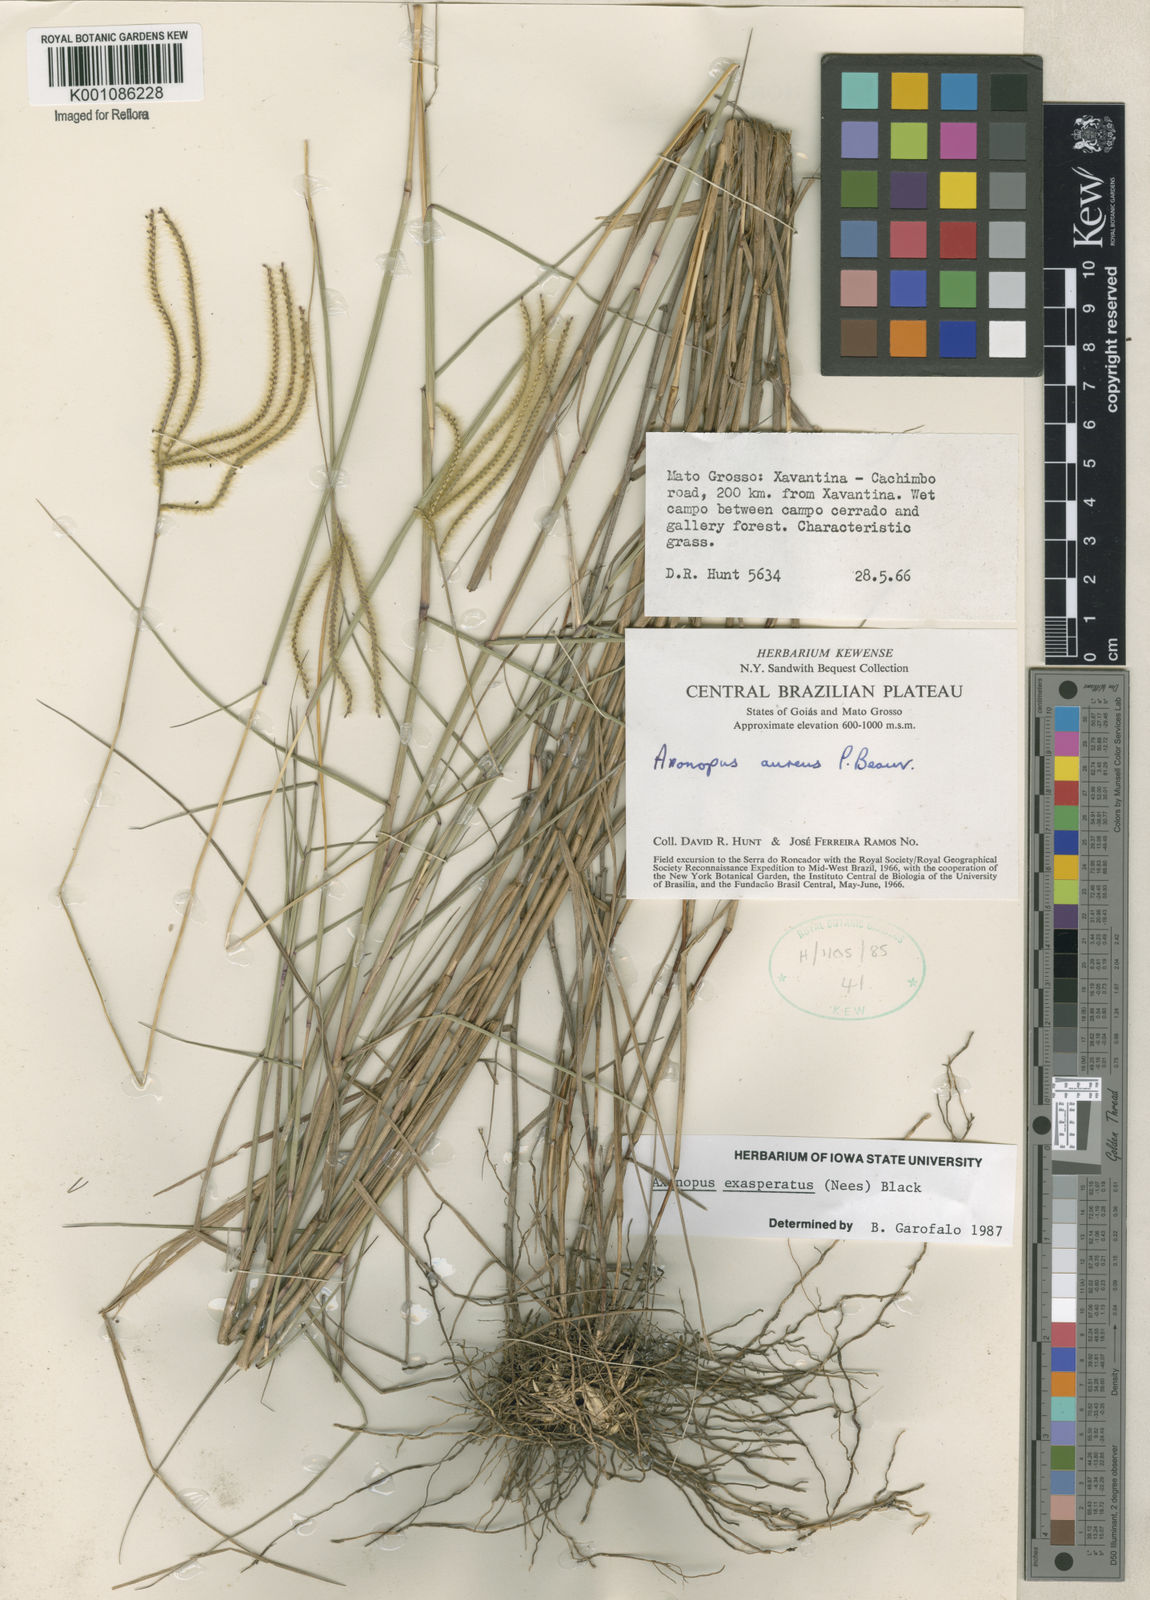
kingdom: Plantae
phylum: Tracheophyta
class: Liliopsida
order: Poales
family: Poaceae
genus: Axonopus
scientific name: Axonopus aureus
